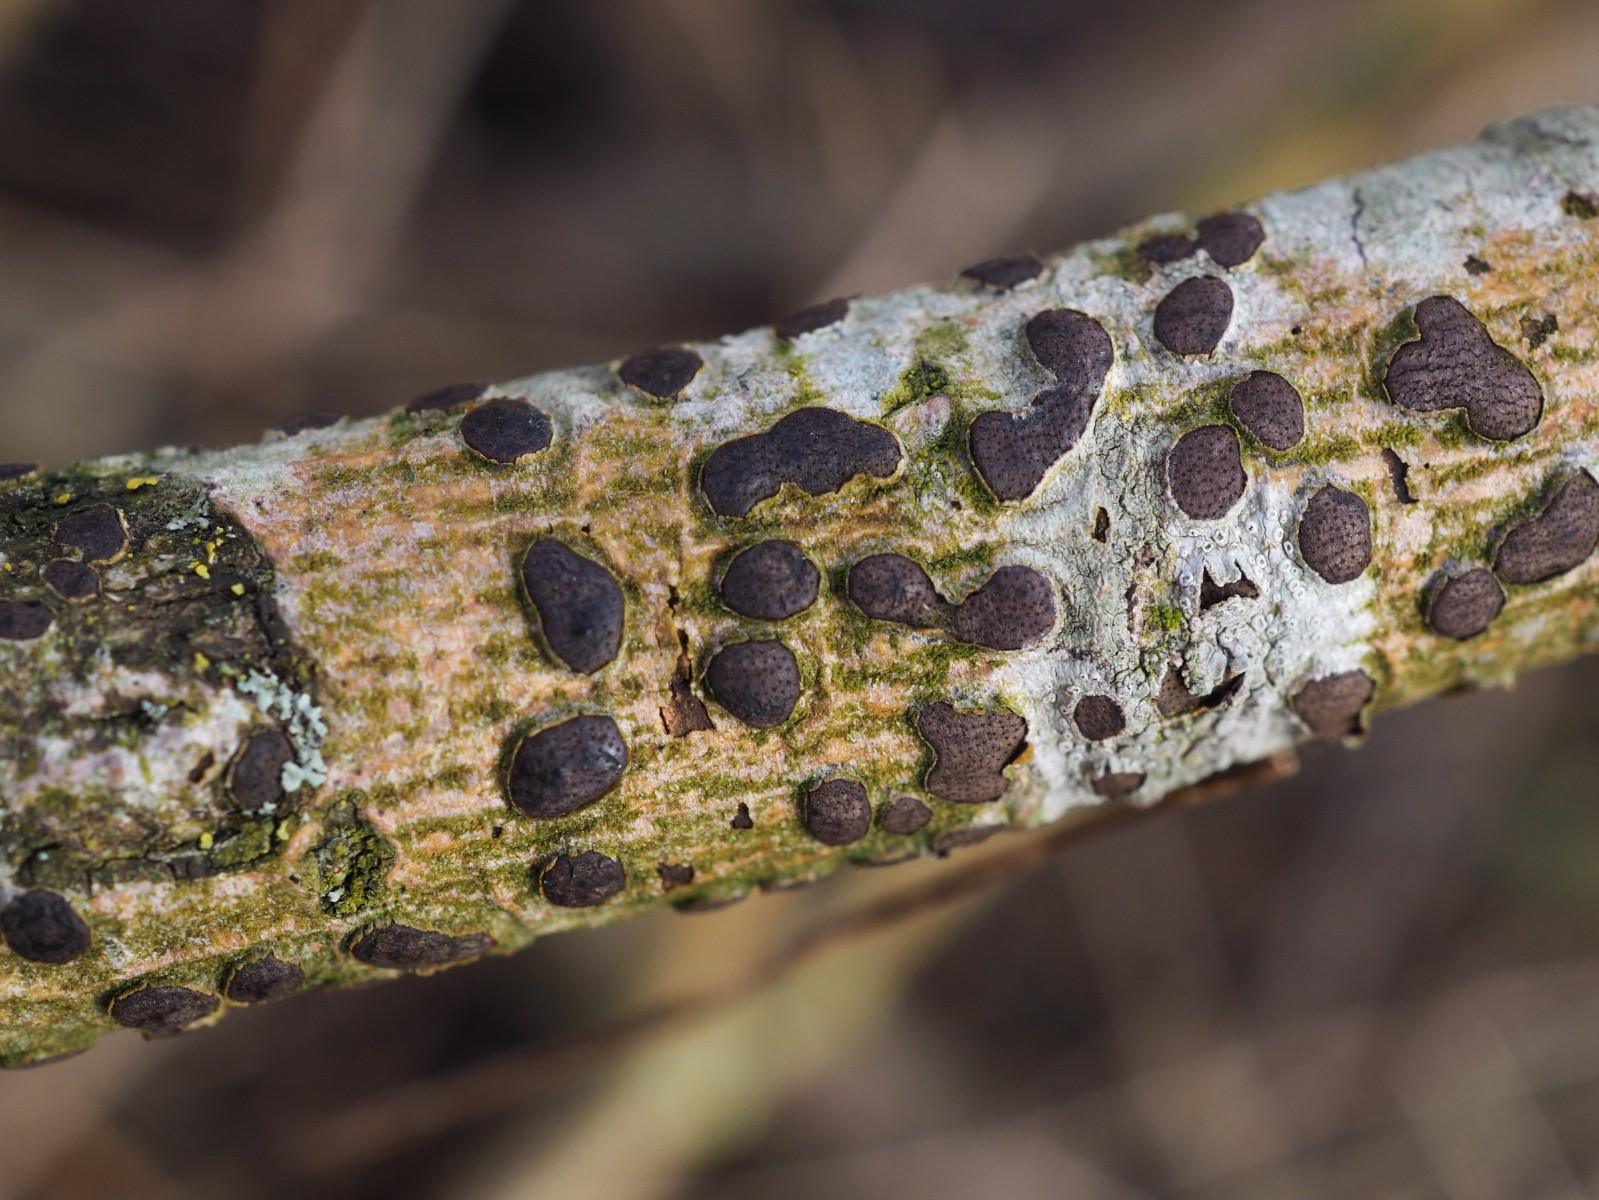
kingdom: Fungi
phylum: Ascomycota
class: Sordariomycetes
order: Xylariales
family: Diatrypaceae
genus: Diatrype
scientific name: Diatrype bullata
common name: pile-kulskorpe
